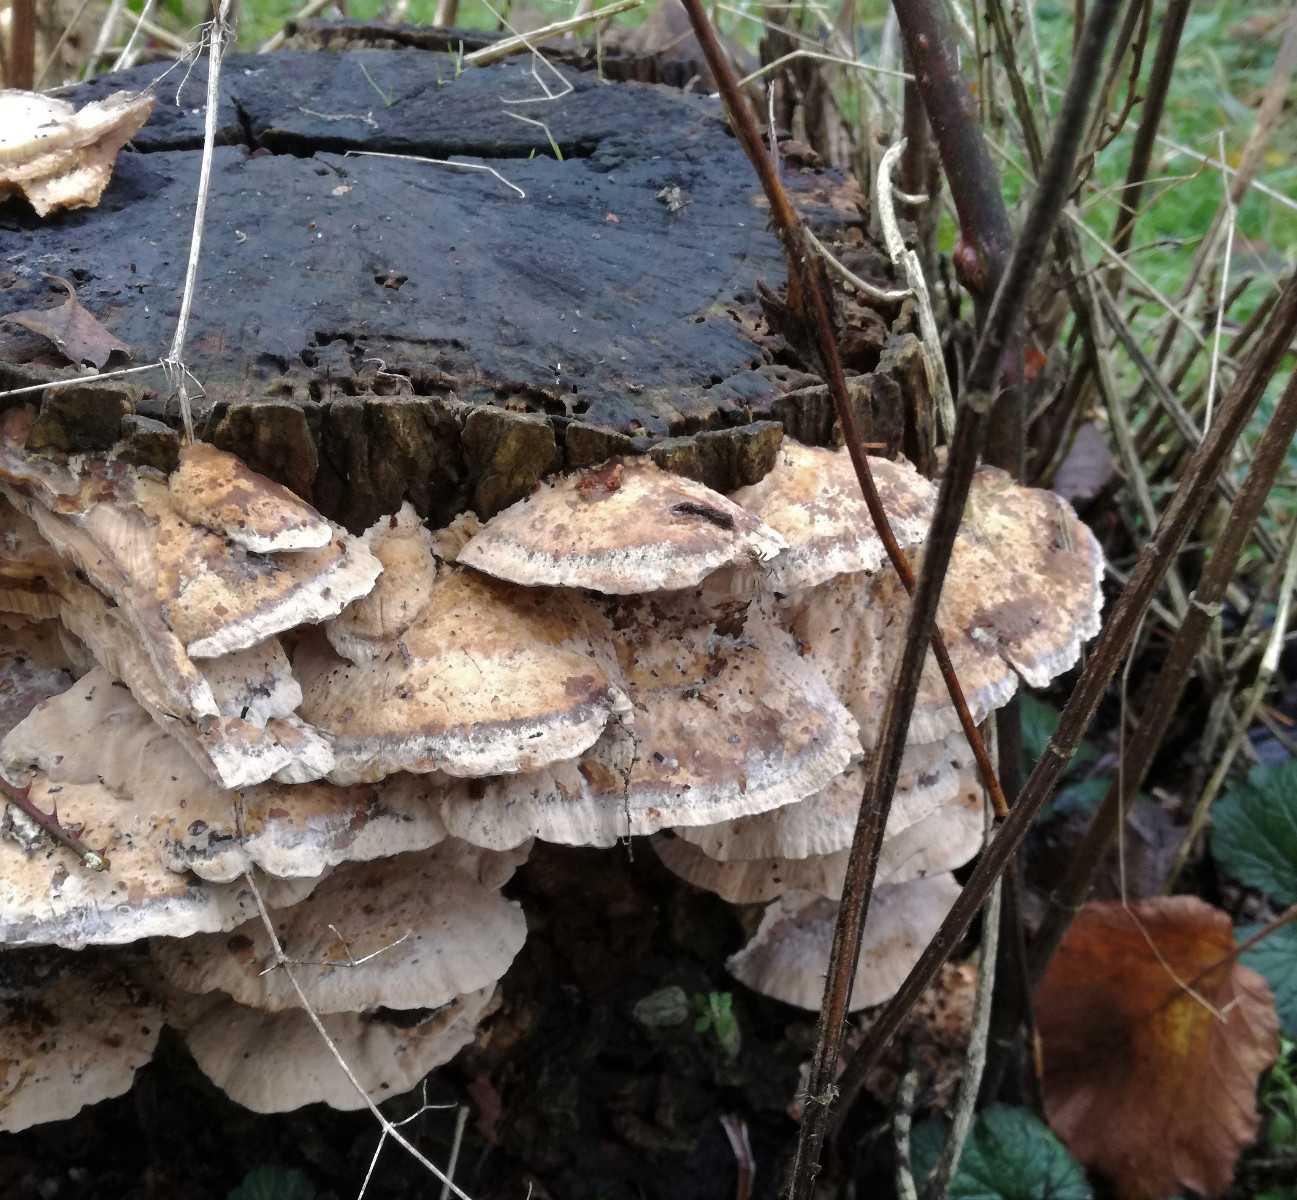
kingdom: Fungi
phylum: Basidiomycota
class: Agaricomycetes
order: Polyporales
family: Phanerochaetaceae
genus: Bjerkandera
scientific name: Bjerkandera fumosa
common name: grågul sodporesvamp
